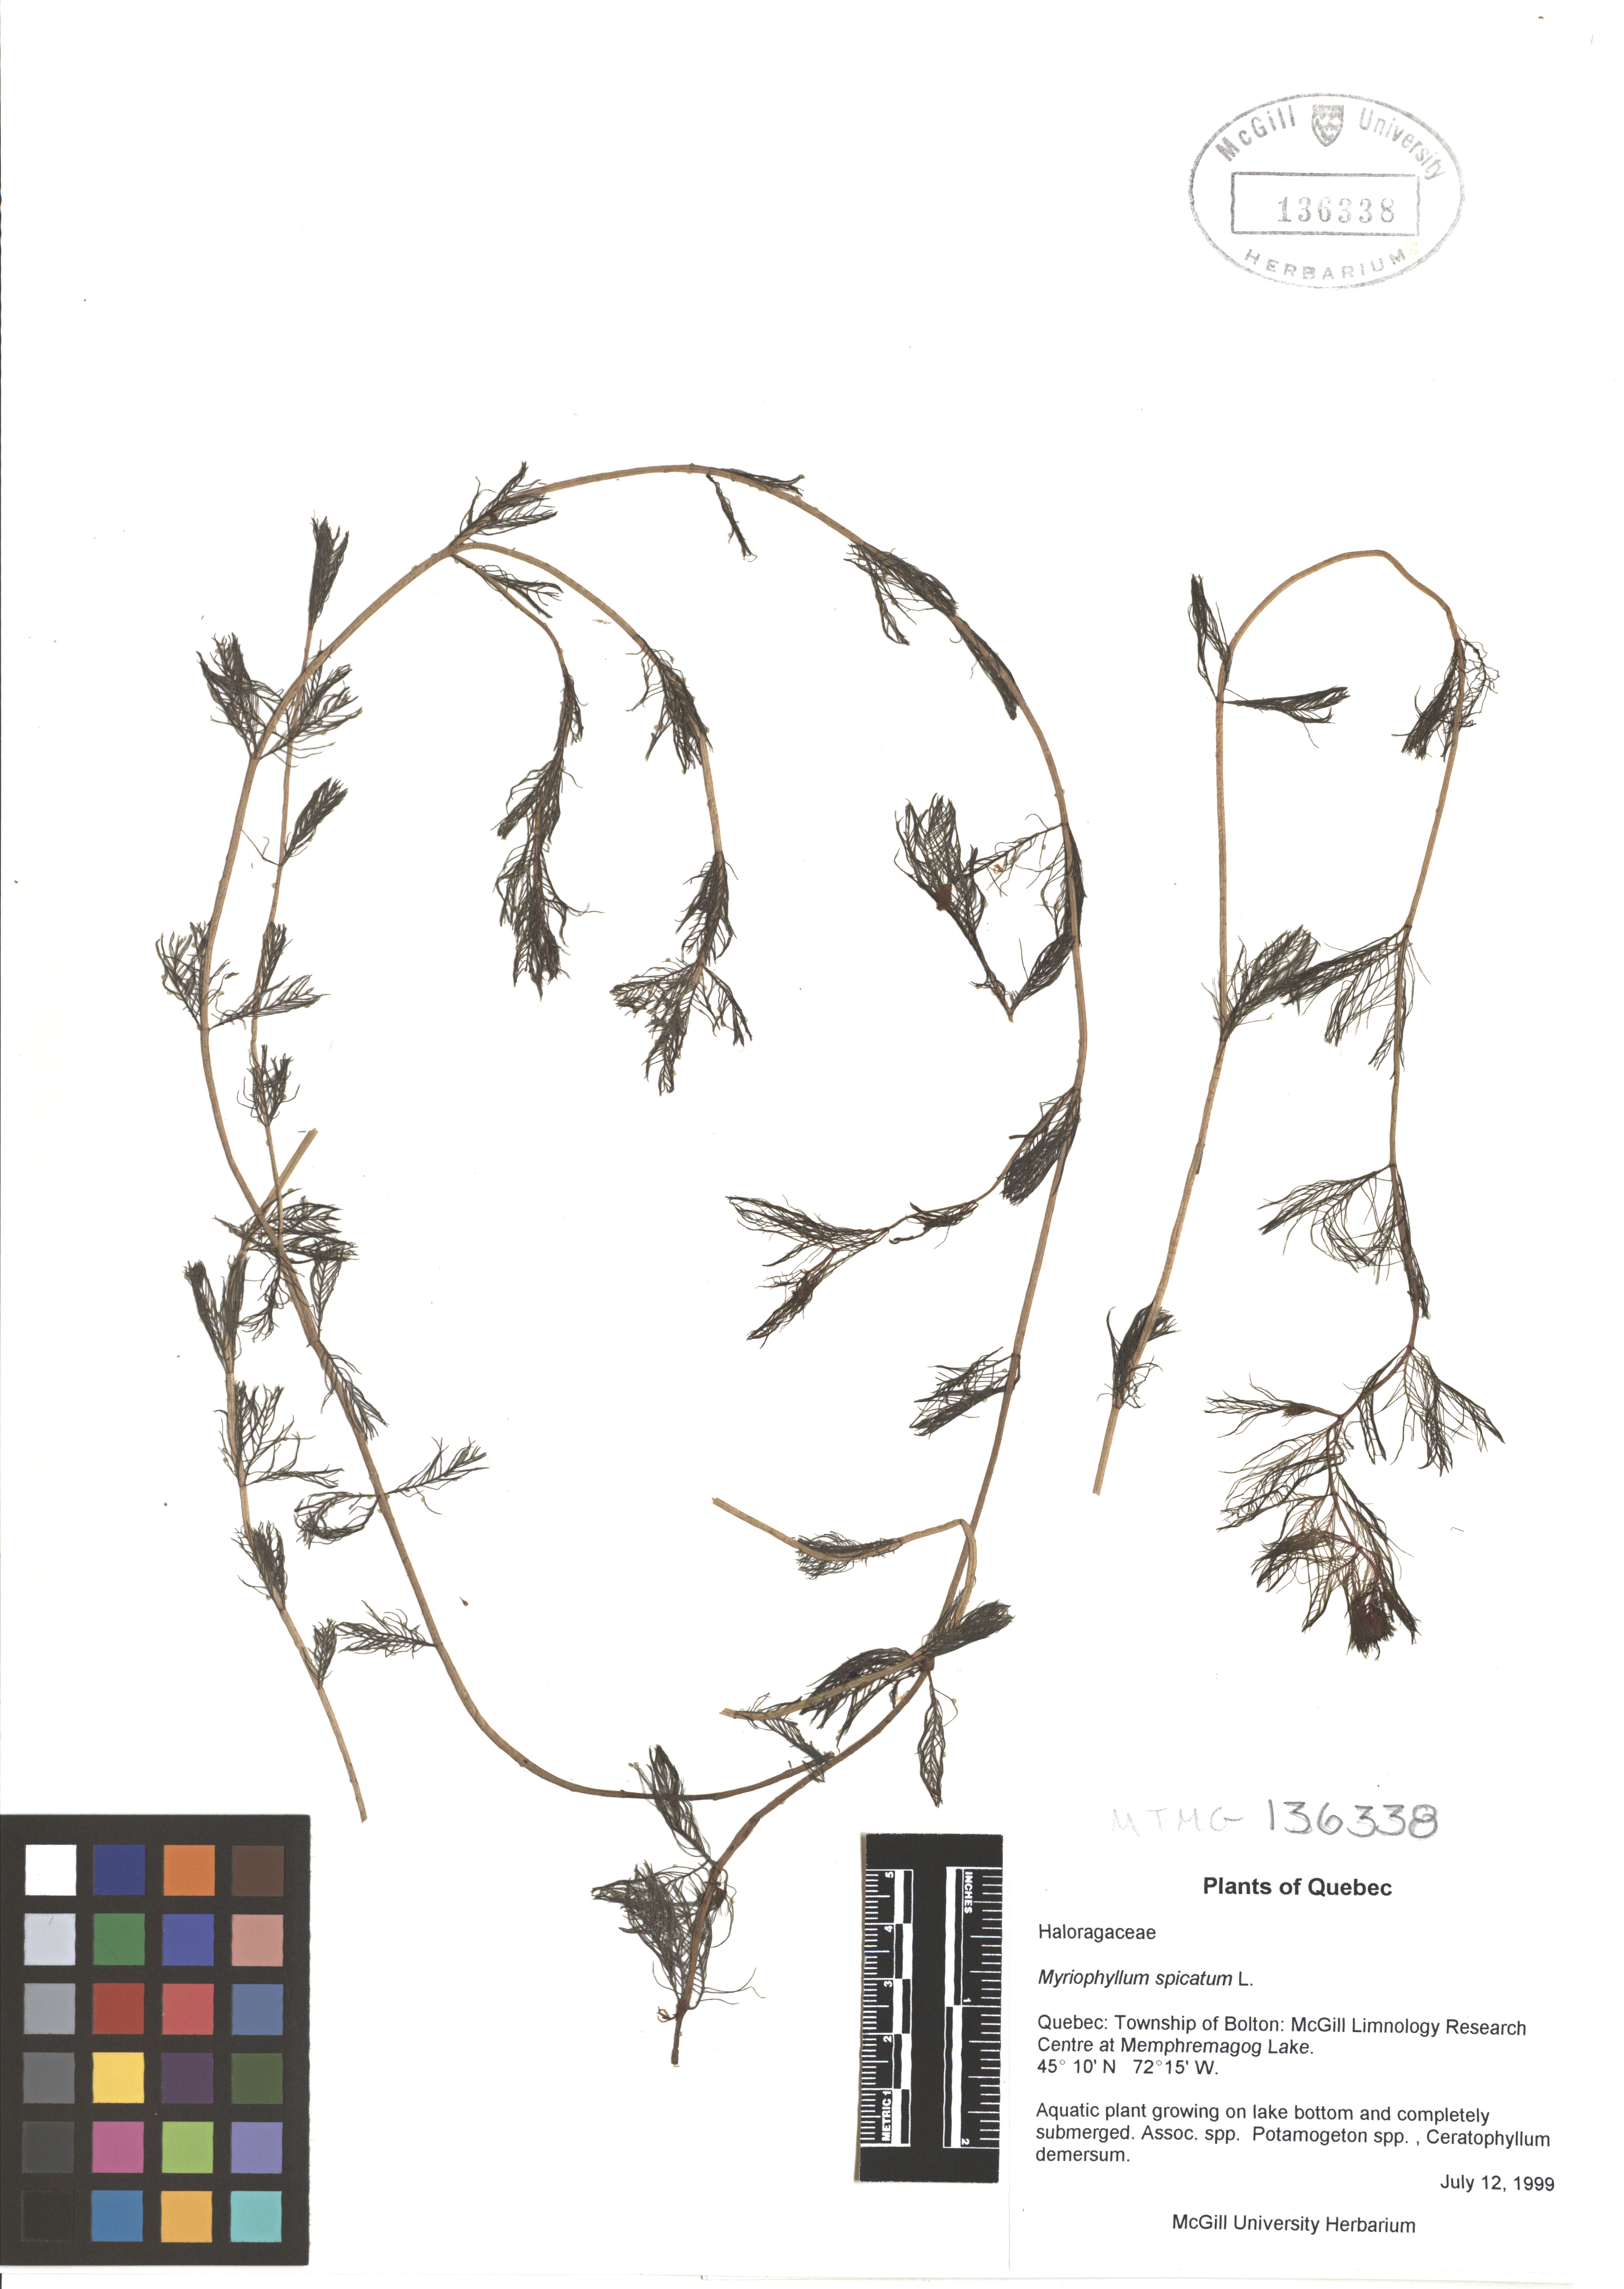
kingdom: Plantae
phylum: Tracheophyta
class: Magnoliopsida
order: Saxifragales
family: Haloragaceae
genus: Myriophyllum
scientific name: Myriophyllum spicatum
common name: Spiked water-milfoil
